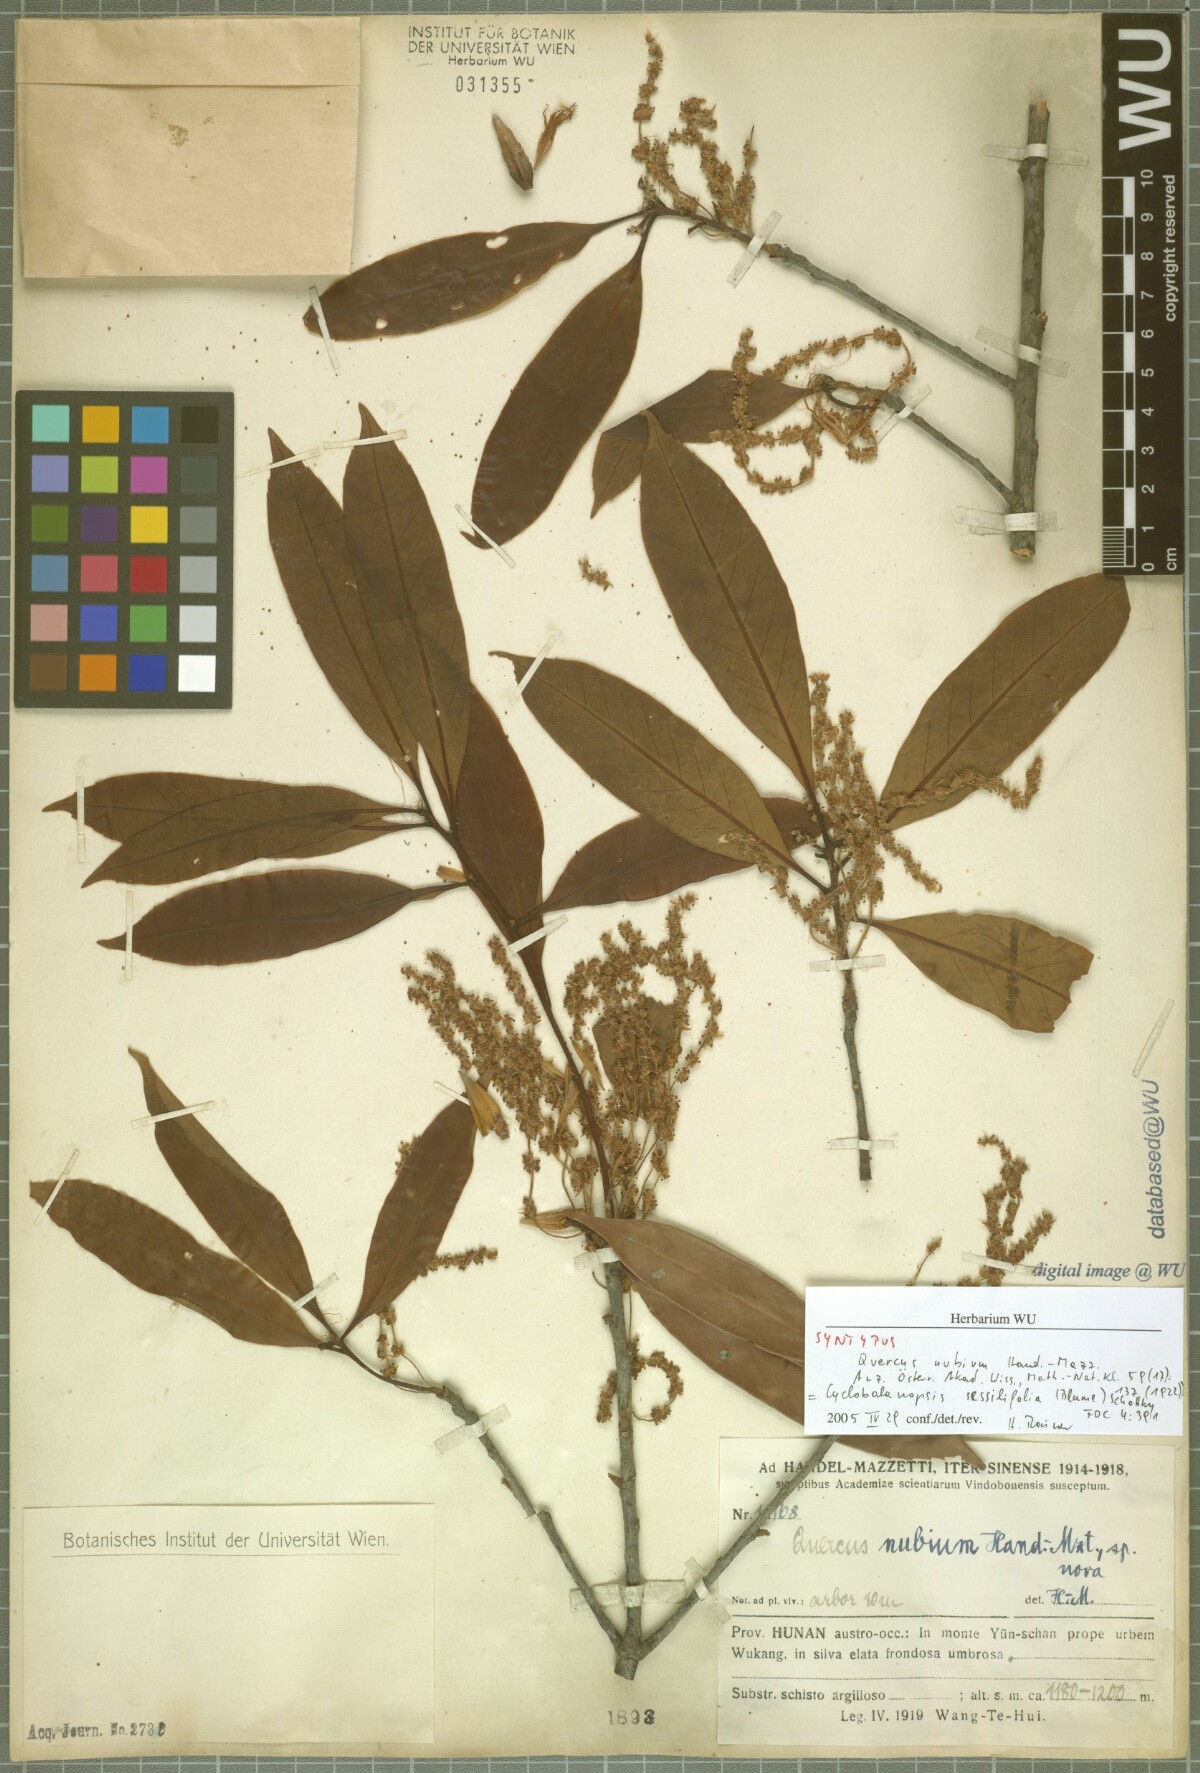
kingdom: Plantae
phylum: Tracheophyta
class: Magnoliopsida
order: Fagales
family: Fagaceae
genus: Quercus
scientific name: Quercus sessilifolia
